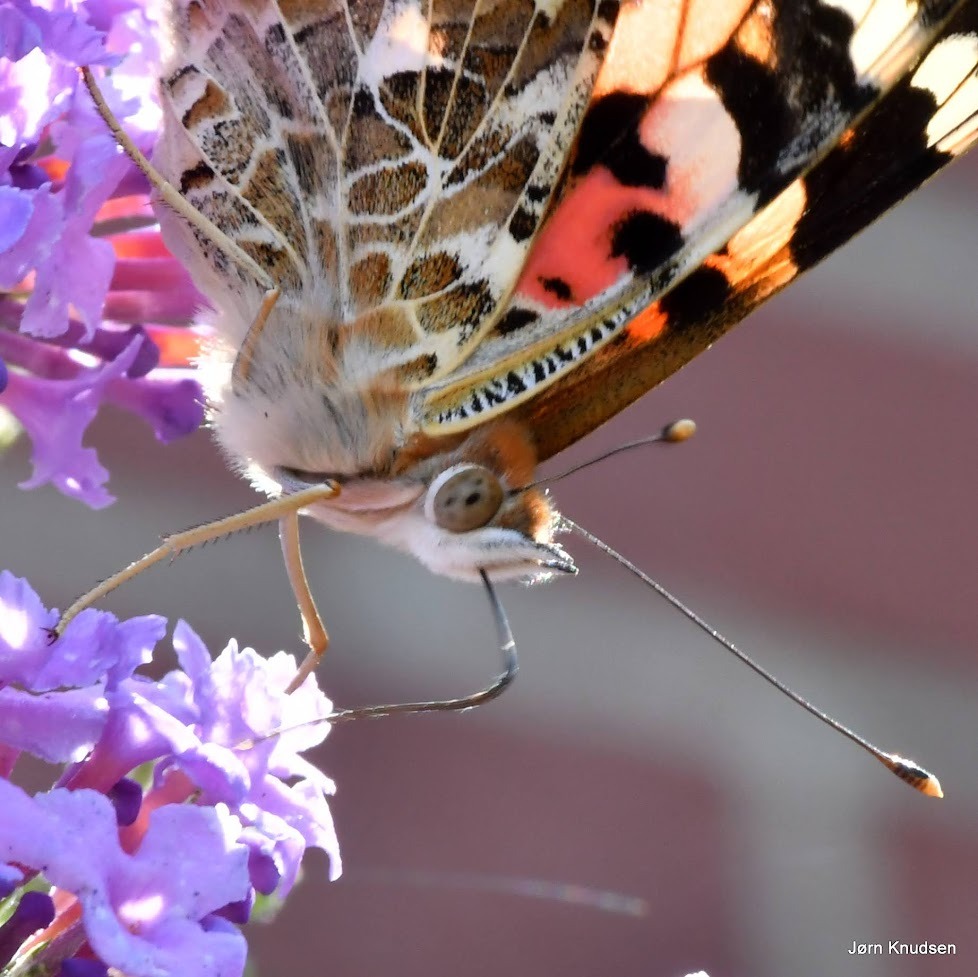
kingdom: Animalia
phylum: Arthropoda
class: Insecta
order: Lepidoptera
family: Nymphalidae
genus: Vanessa
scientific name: Vanessa cardui
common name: Tidselsommerfugl
